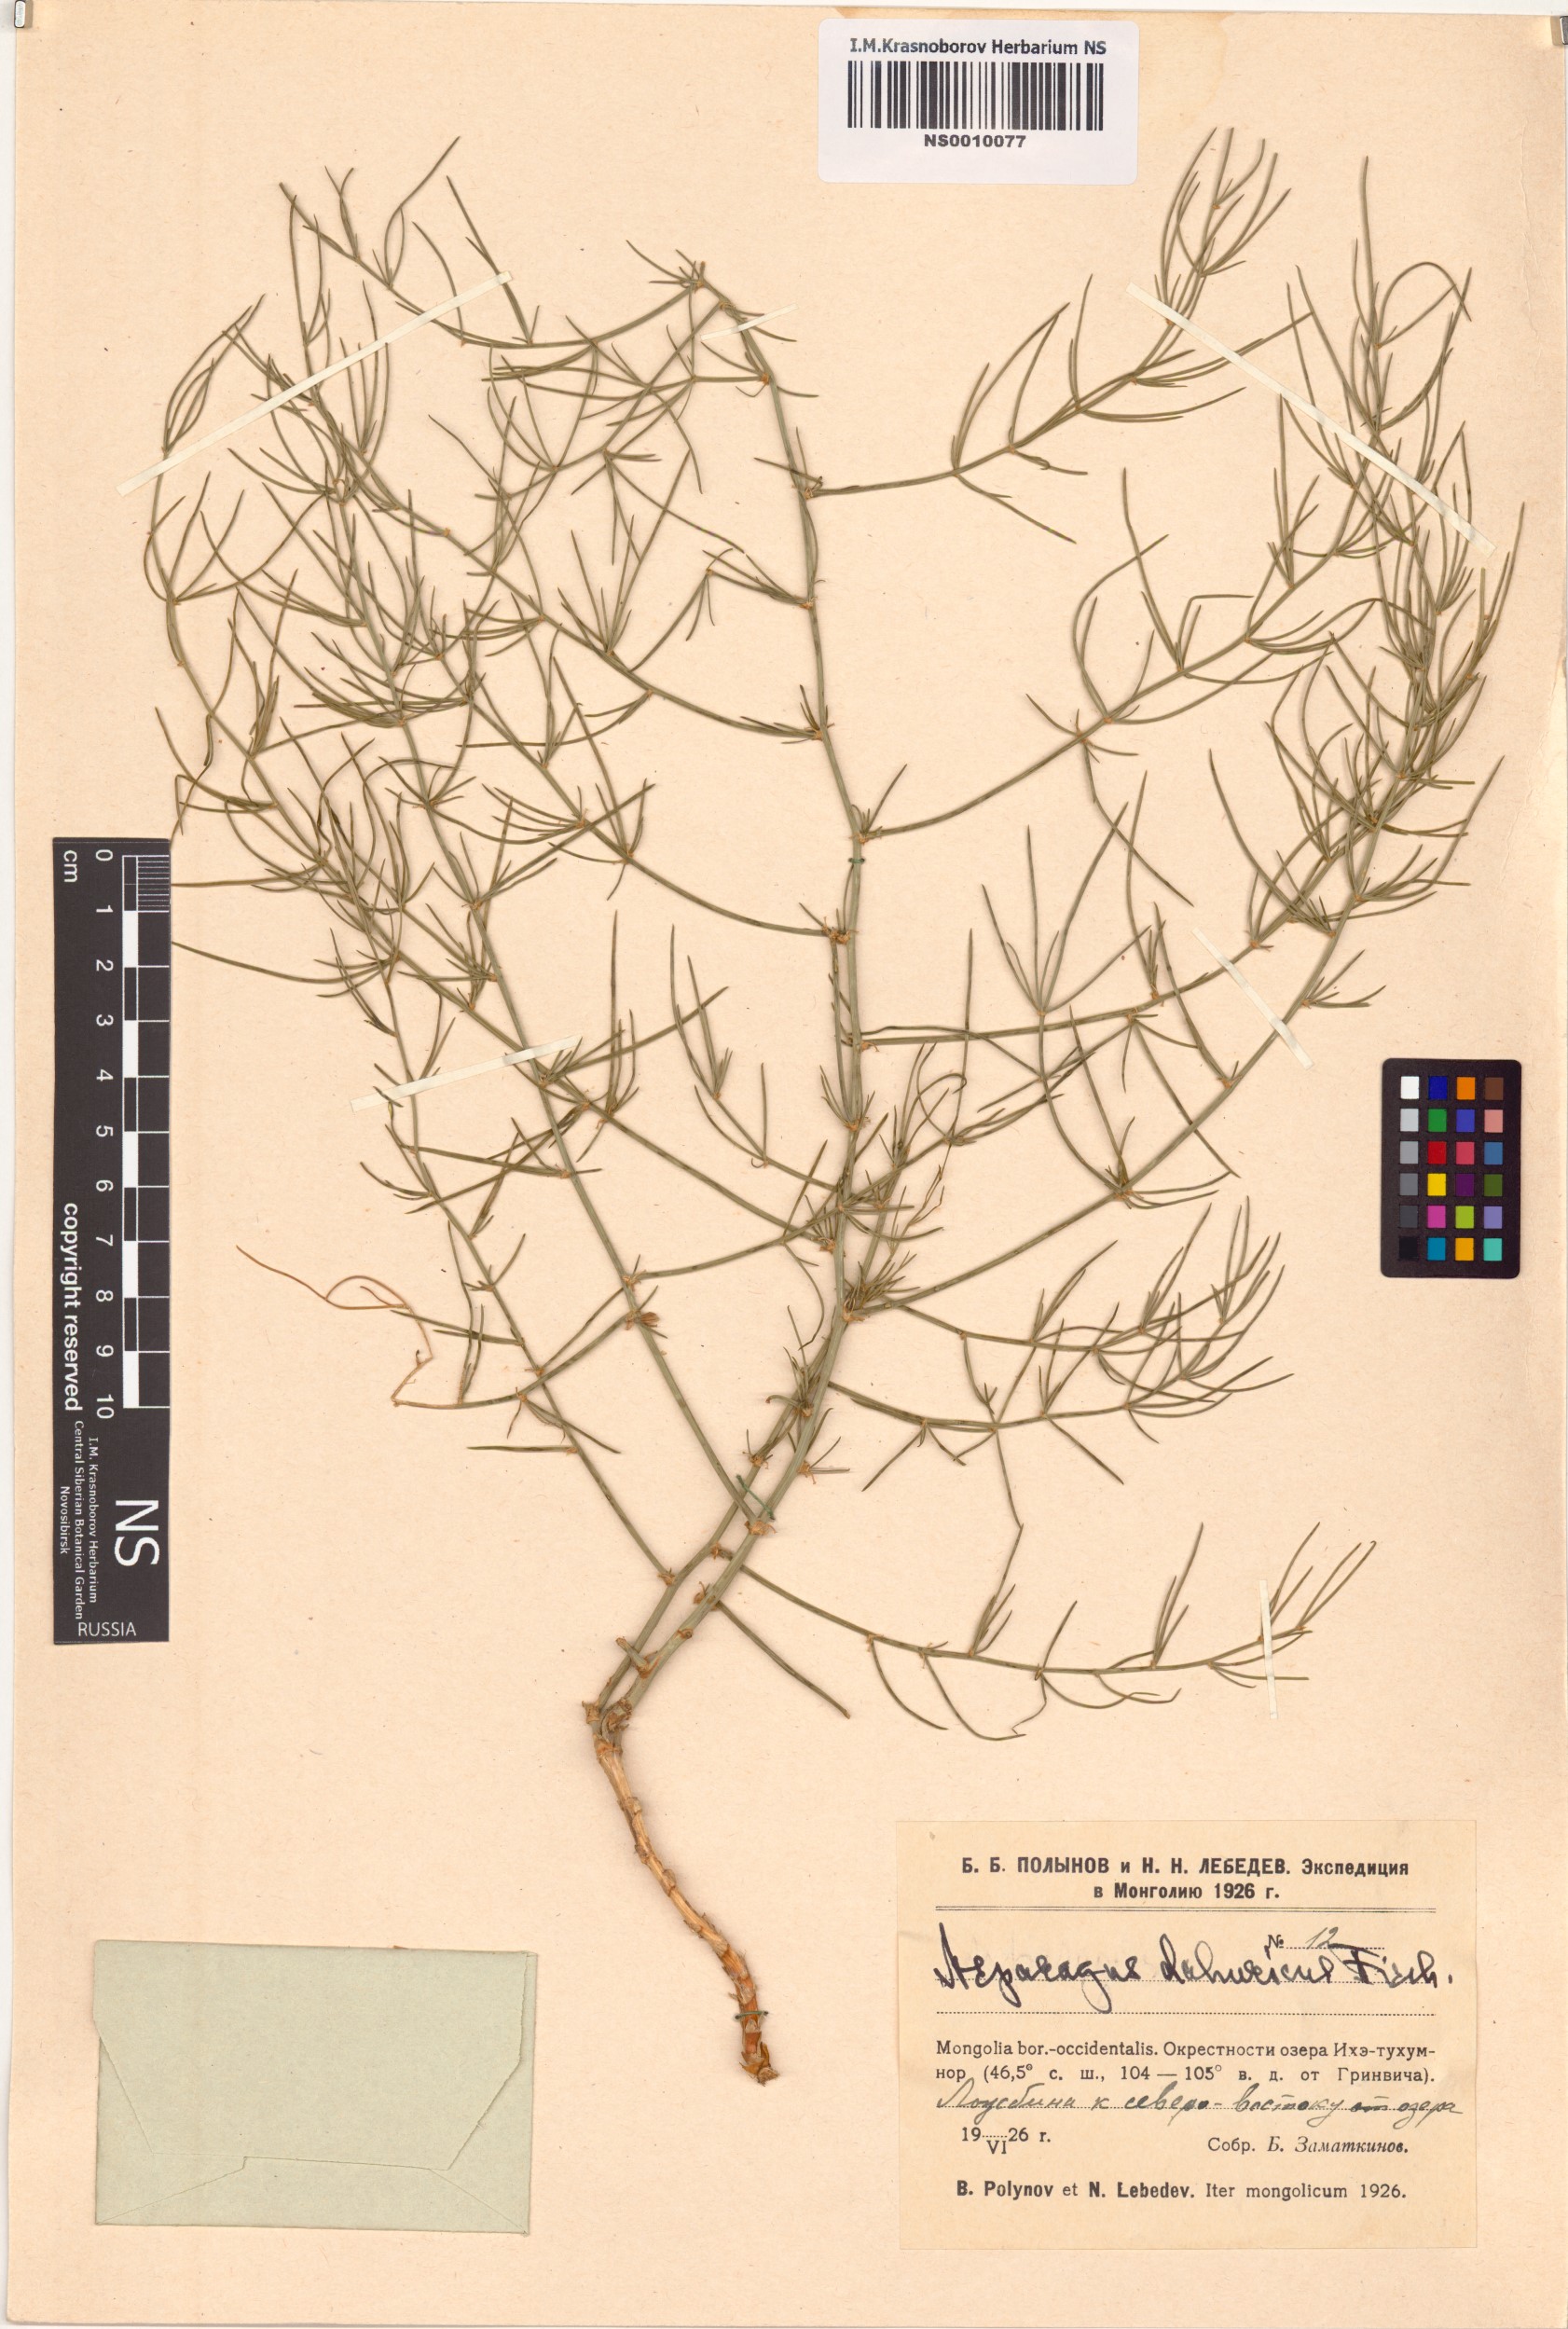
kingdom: Plantae
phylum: Tracheophyta
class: Liliopsida
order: Asparagales
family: Asparagaceae
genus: Asparagus
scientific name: Asparagus dauricus
